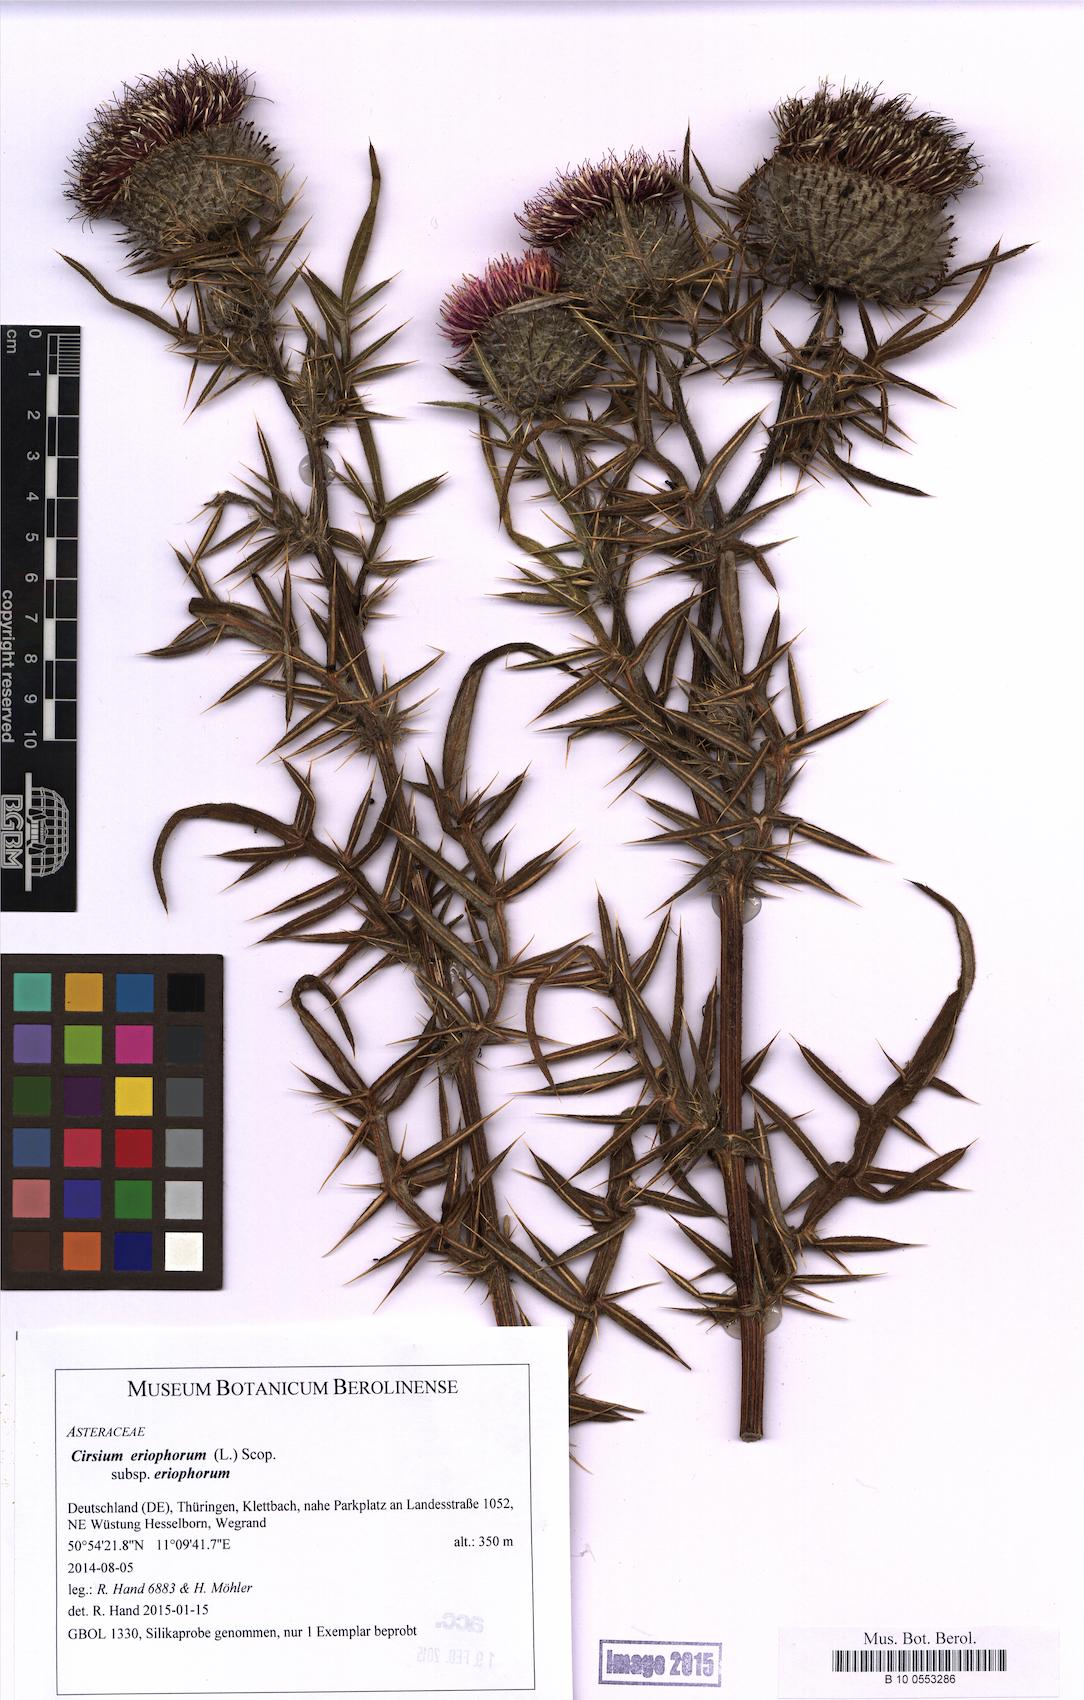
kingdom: Plantae
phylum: Tracheophyta
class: Magnoliopsida
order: Asterales
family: Asteraceae
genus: Lophiolepis
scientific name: Lophiolepis eriophora
